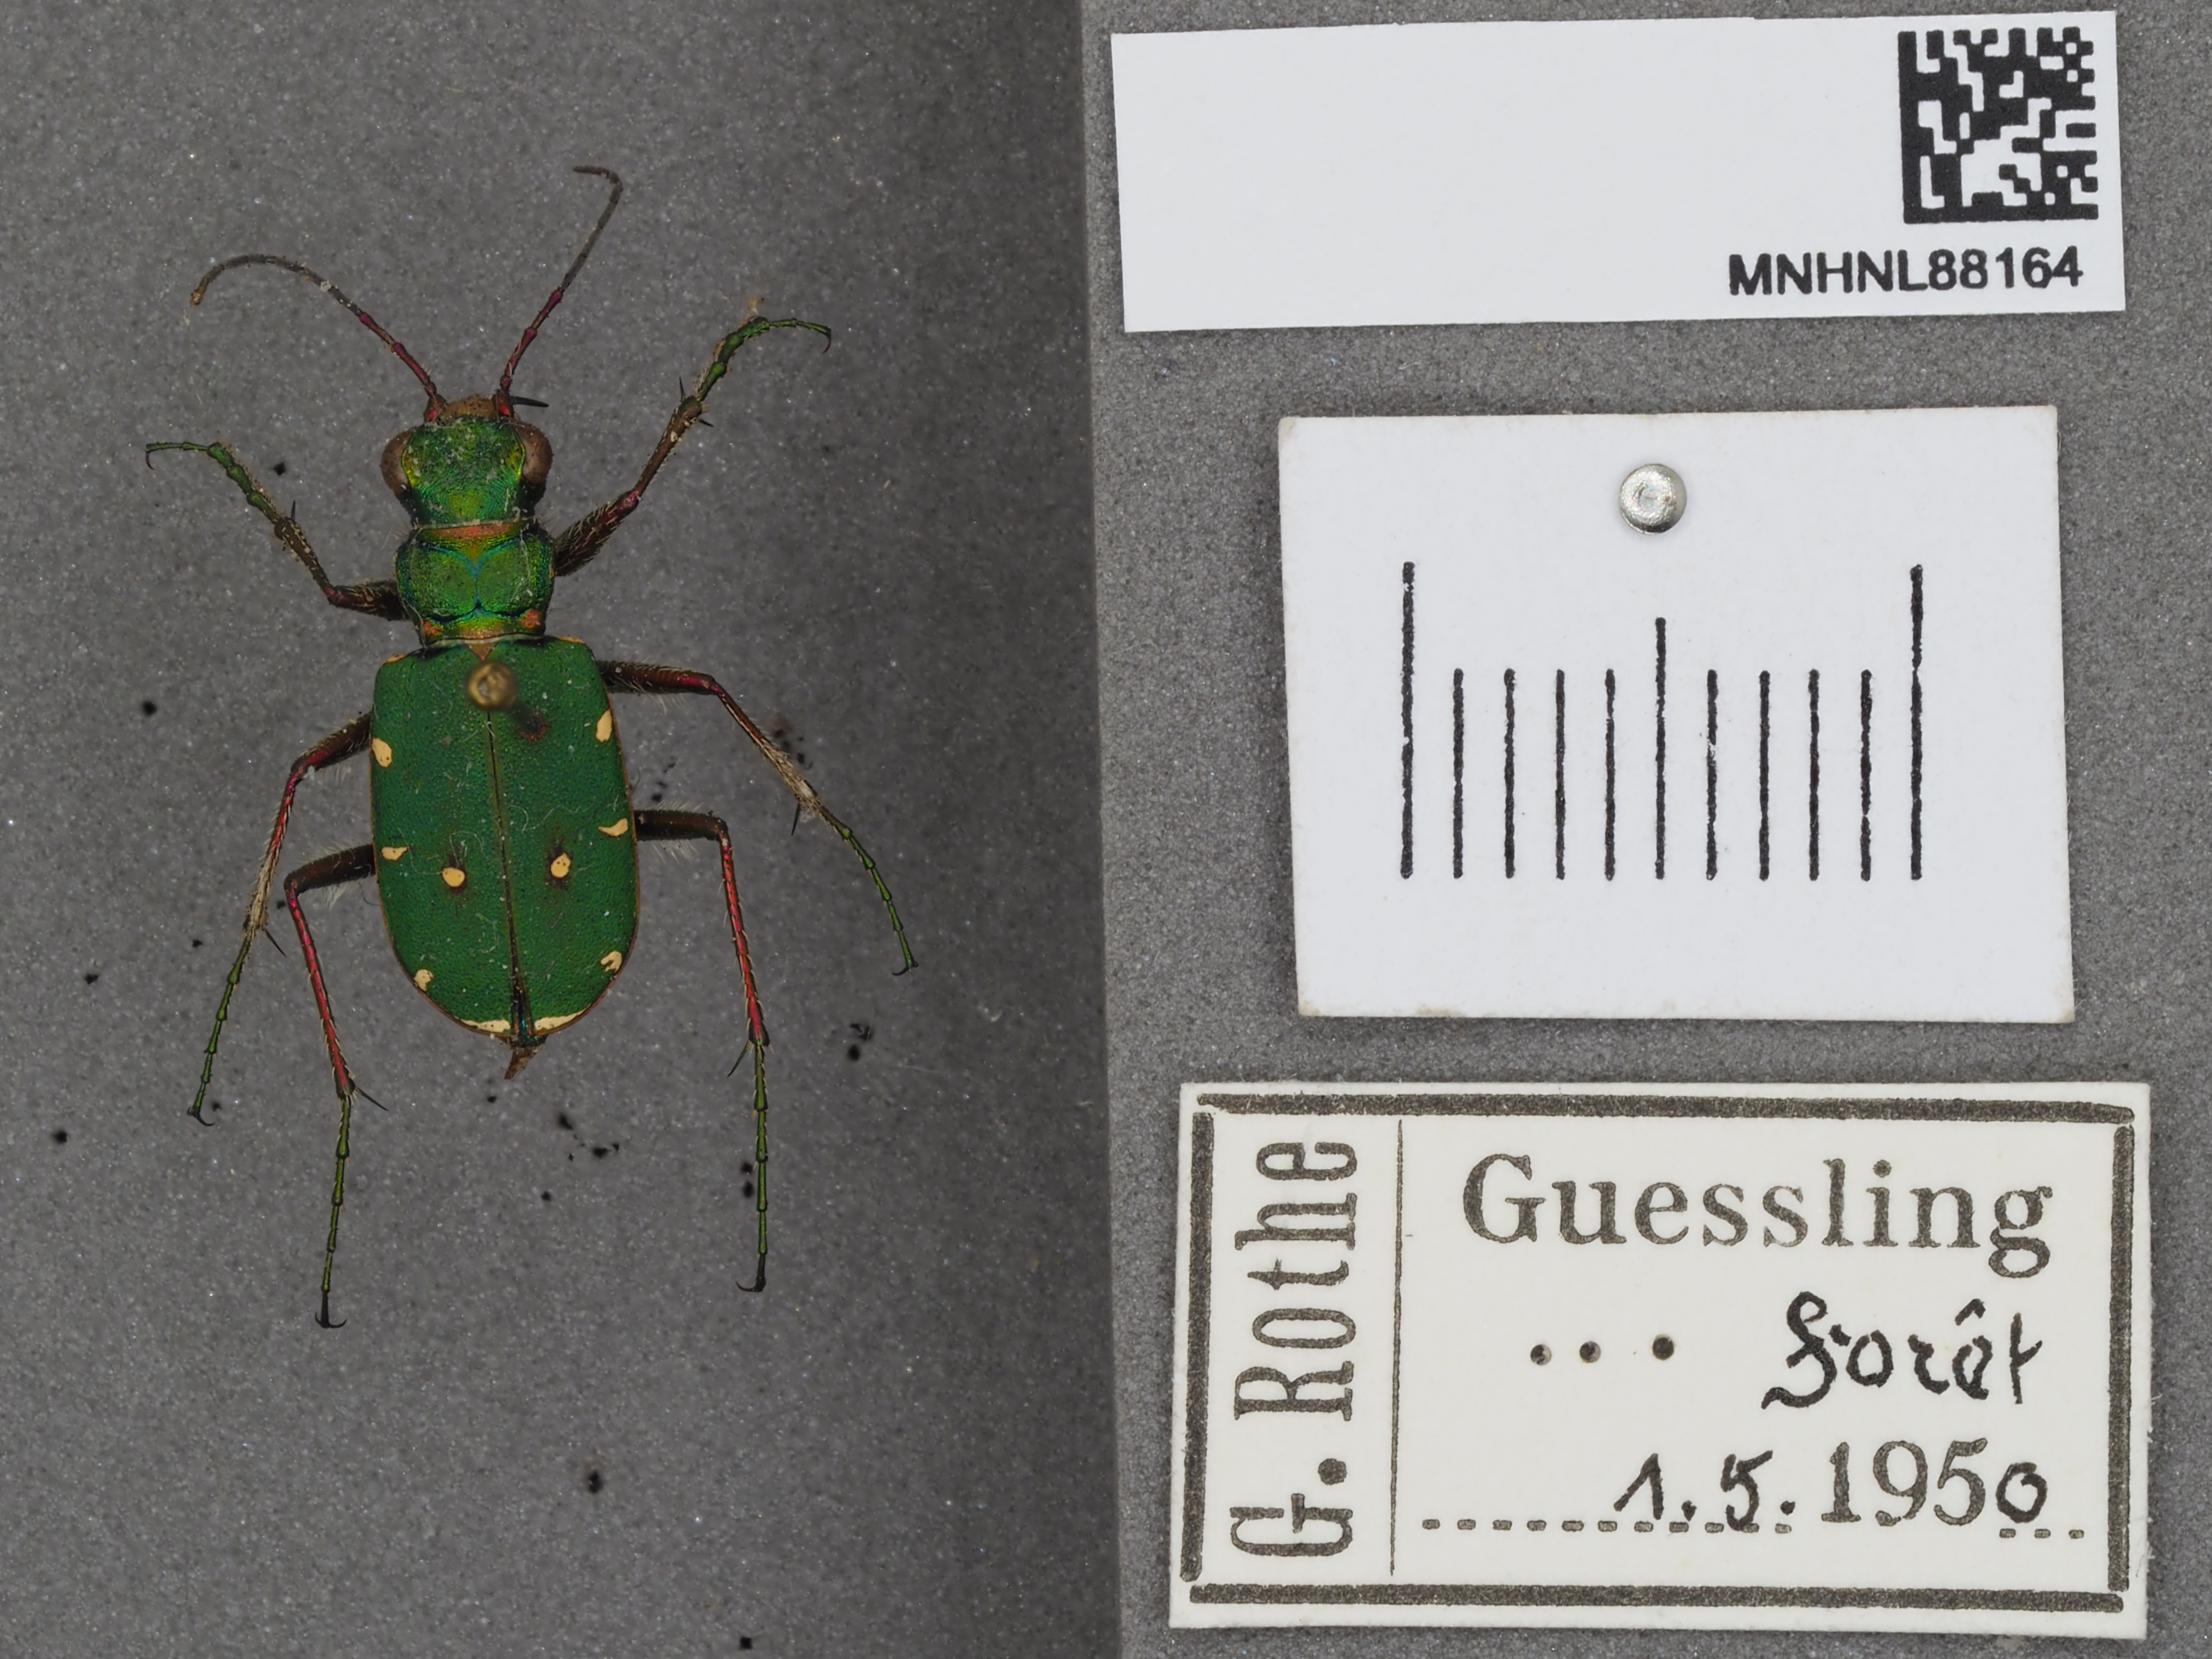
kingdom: Animalia
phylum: Arthropoda
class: Insecta
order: Coleoptera
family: Carabidae
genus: Cicindela
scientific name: Cicindela campestris
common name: Common tiger beetle
